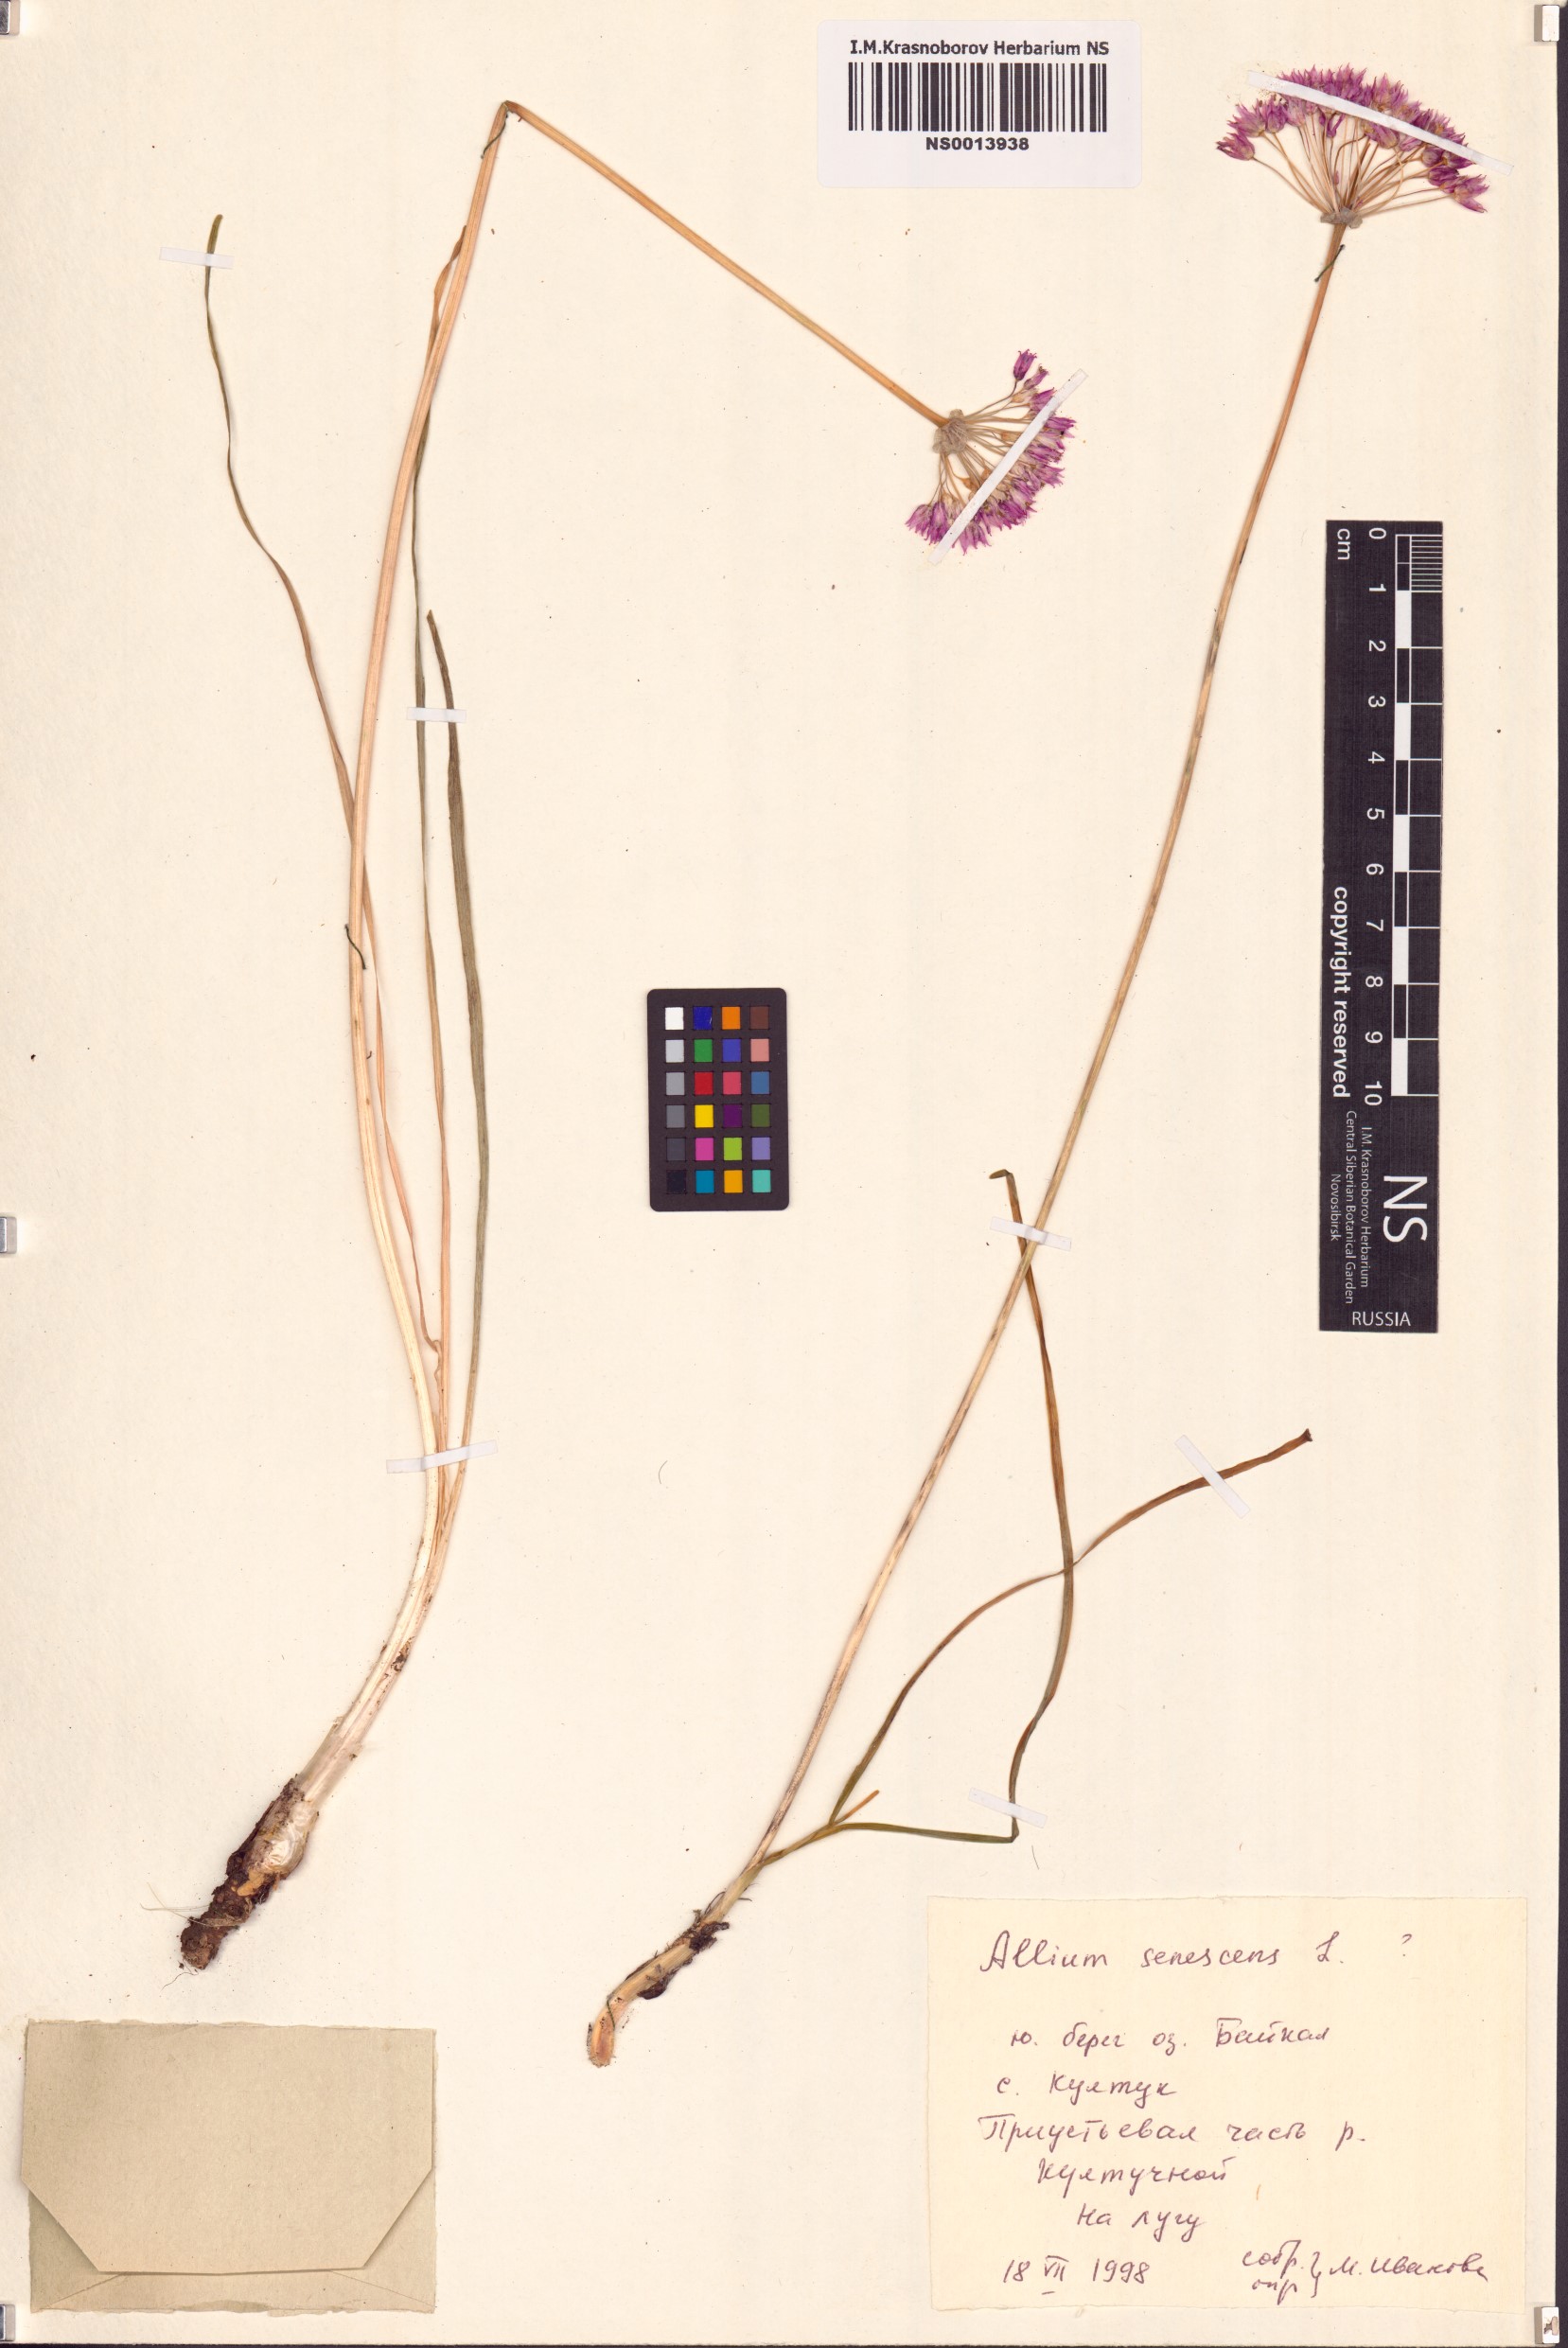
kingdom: Plantae
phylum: Tracheophyta
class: Liliopsida
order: Asparagales
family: Amaryllidaceae
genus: Allium
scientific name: Allium senescens
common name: German garlic
